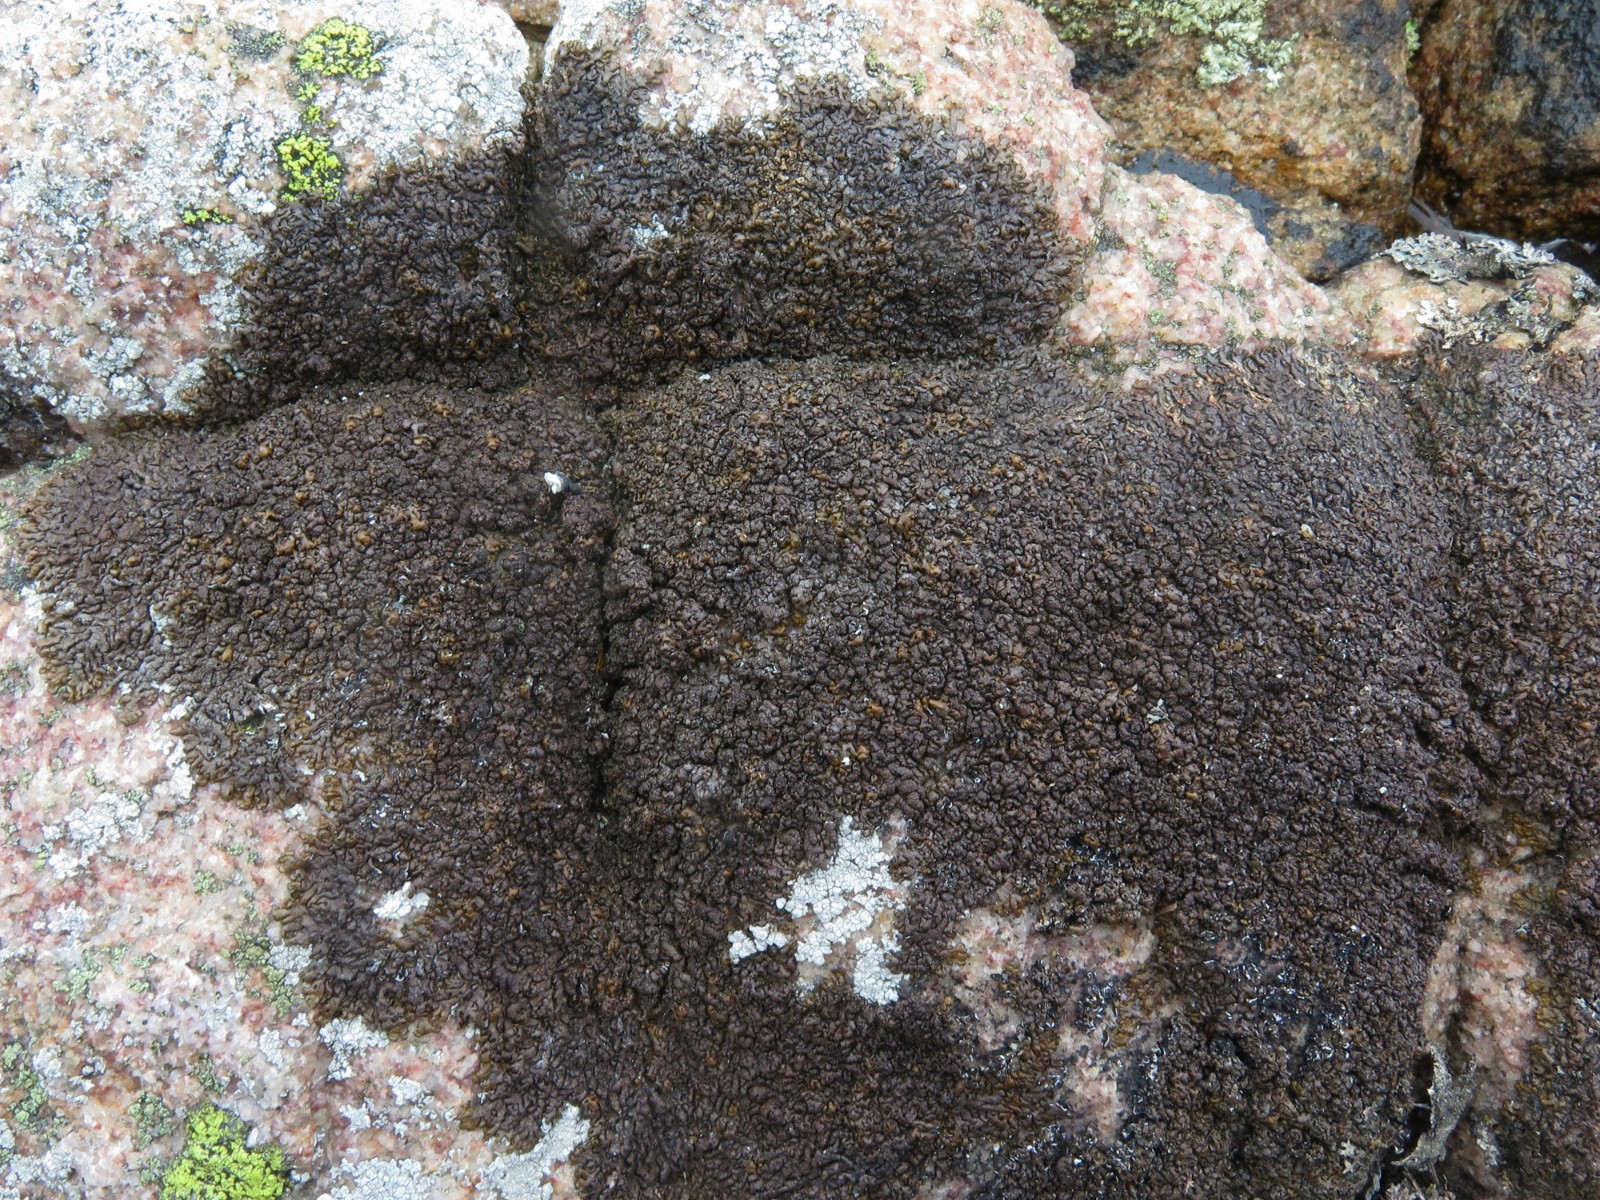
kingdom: Fungi
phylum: Ascomycota
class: Lecanoromycetes
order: Lecanorales
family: Parmeliaceae
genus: Xanthoparmelia
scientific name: Xanthoparmelia pulla
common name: mørkebrun skållav
